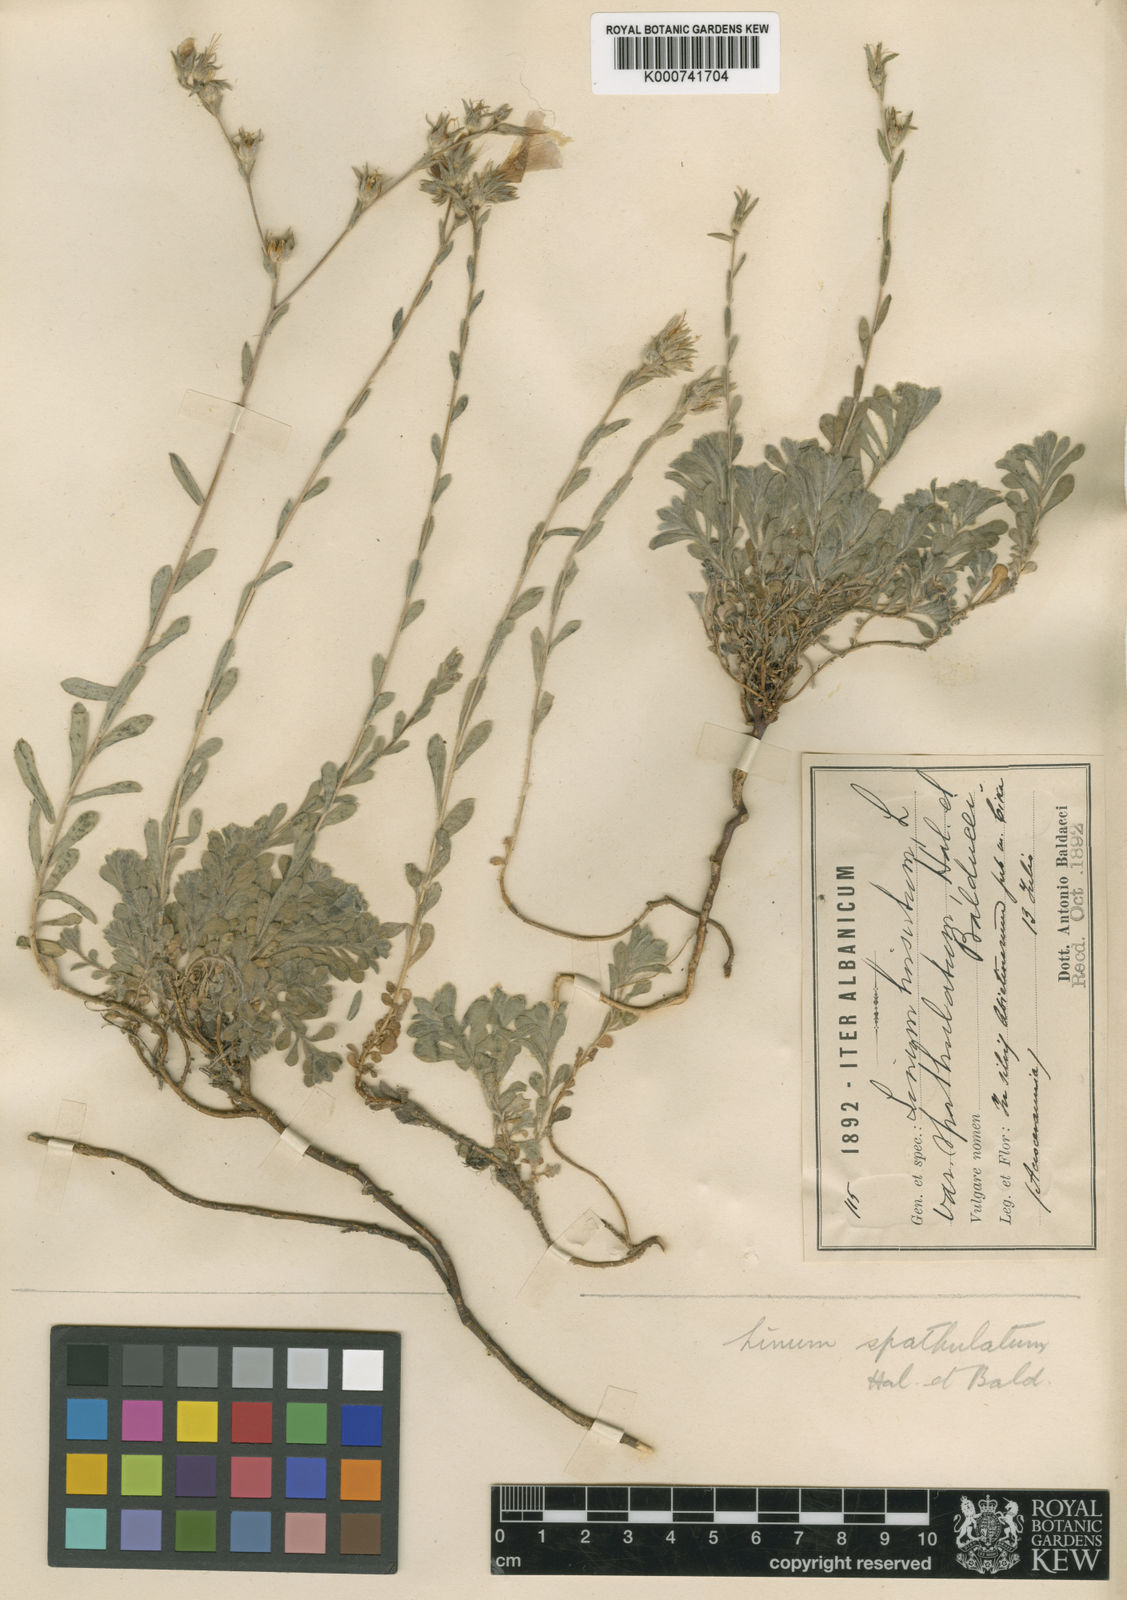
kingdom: Plantae
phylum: Tracheophyta
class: Magnoliopsida
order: Malpighiales
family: Linaceae
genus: Linum
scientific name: Linum
